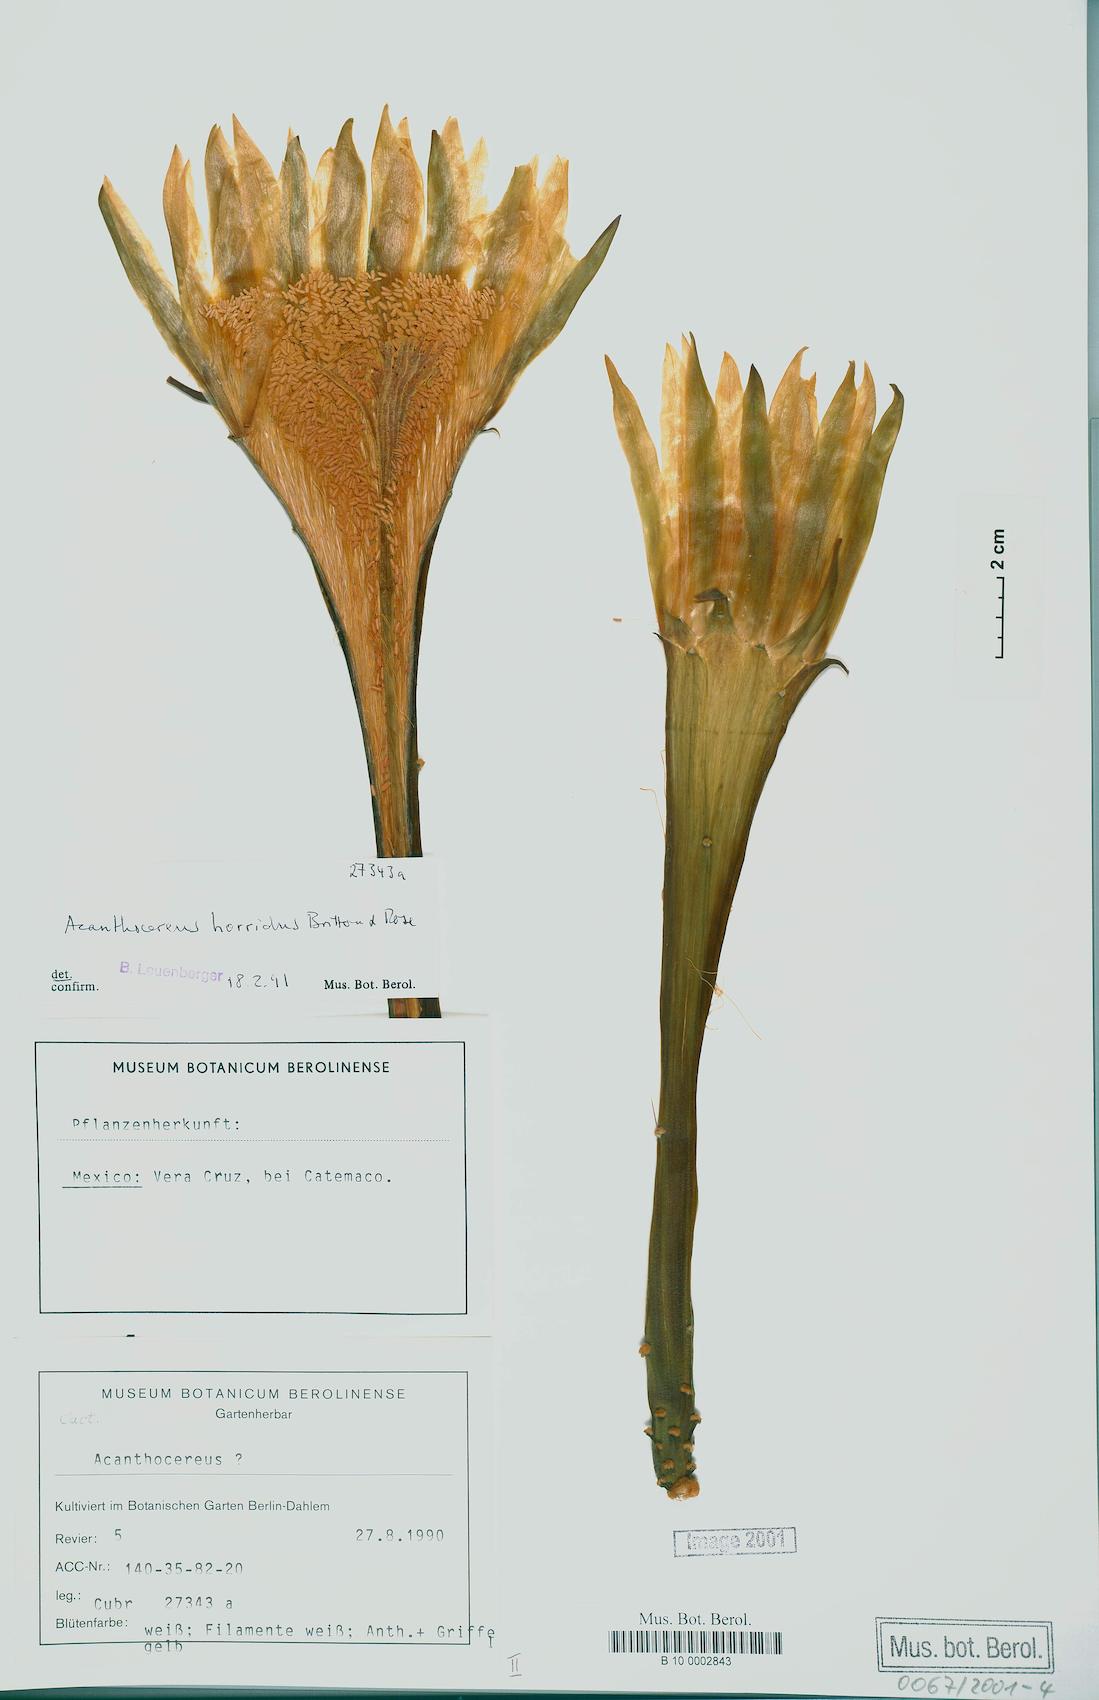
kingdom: Plantae
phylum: Tracheophyta
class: Magnoliopsida
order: Caryophyllales
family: Cactaceae
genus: Acanthocereus
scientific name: Acanthocereus tetragonus
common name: Triangle cactus
